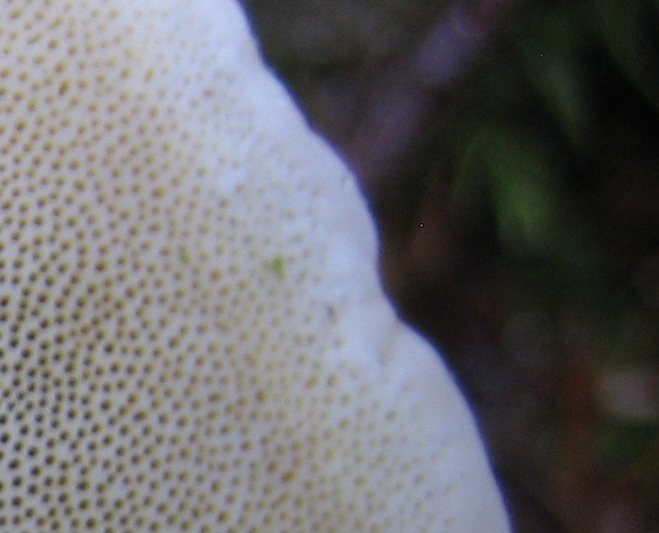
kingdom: Fungi
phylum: Basidiomycota
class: Agaricomycetes
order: Polyporales
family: Fomitopsidaceae
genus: Fomitopsis
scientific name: Fomitopsis pinicola
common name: randbæltet hovporesvamp
